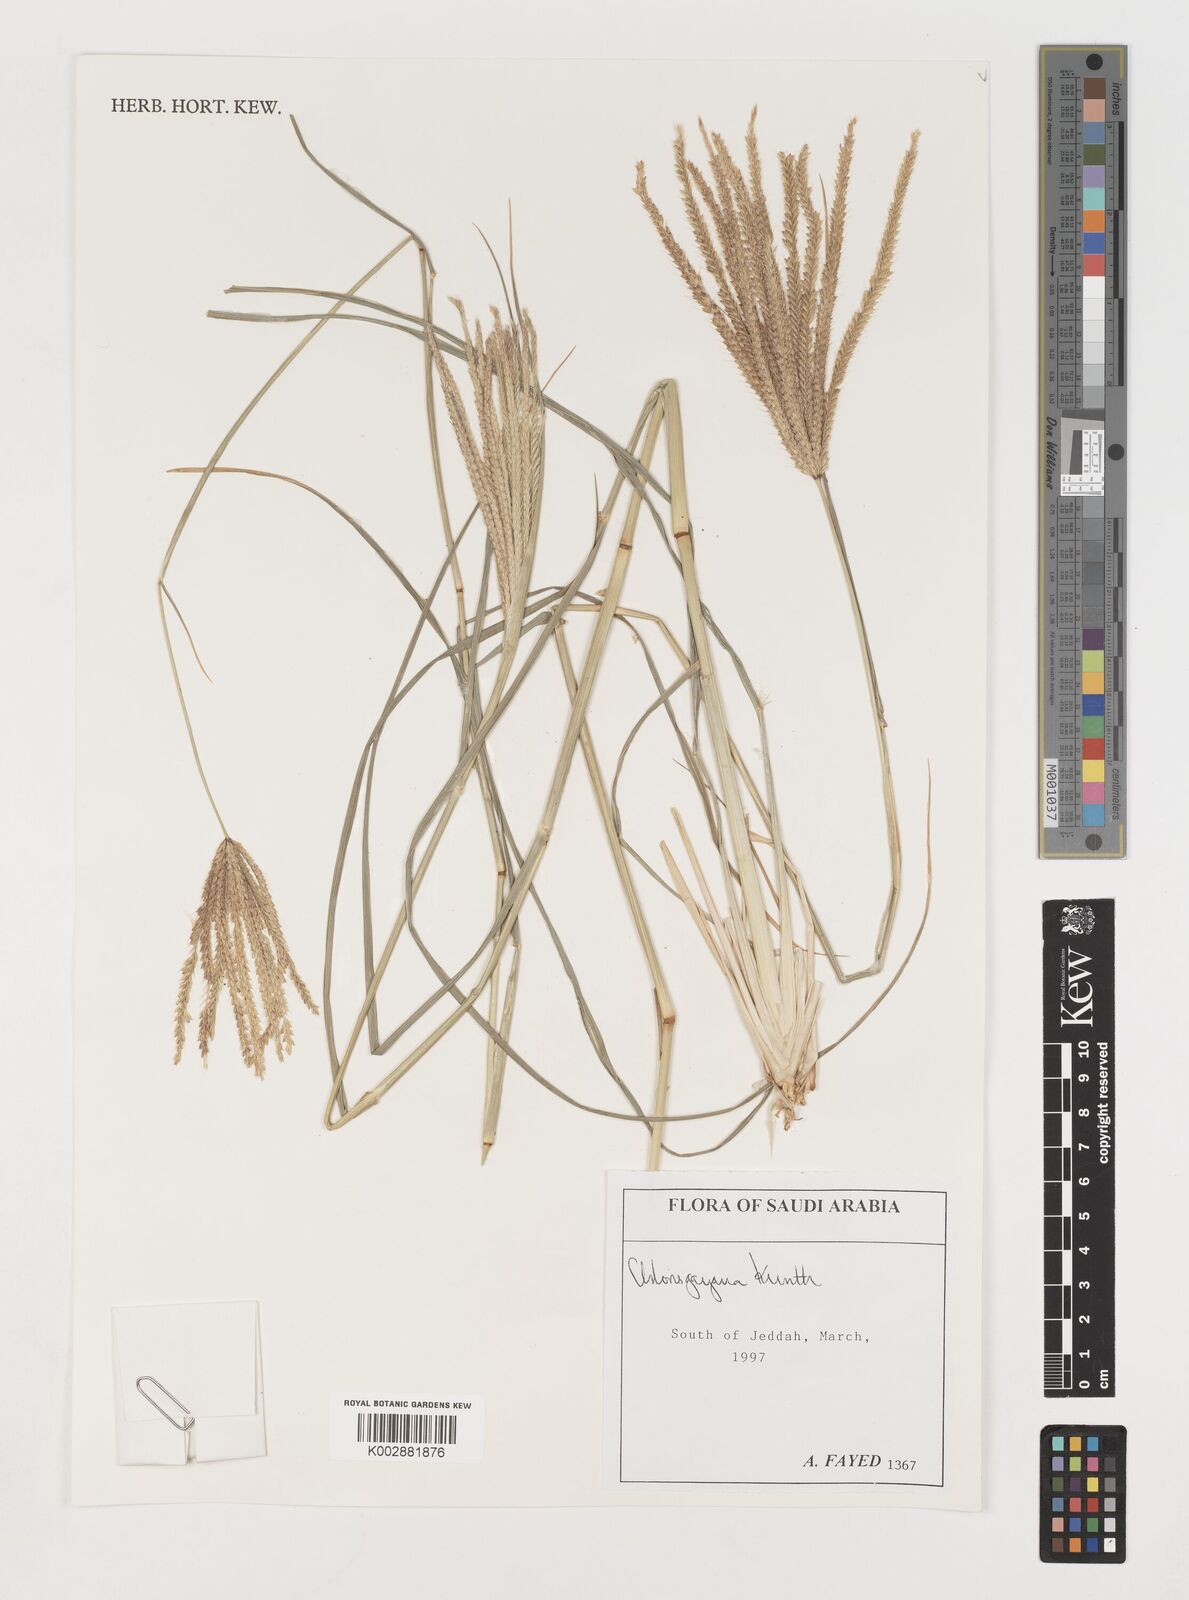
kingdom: Plantae
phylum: Tracheophyta
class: Liliopsida
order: Poales
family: Poaceae
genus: Chloris
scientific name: Chloris gayana
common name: Rhodes grass
